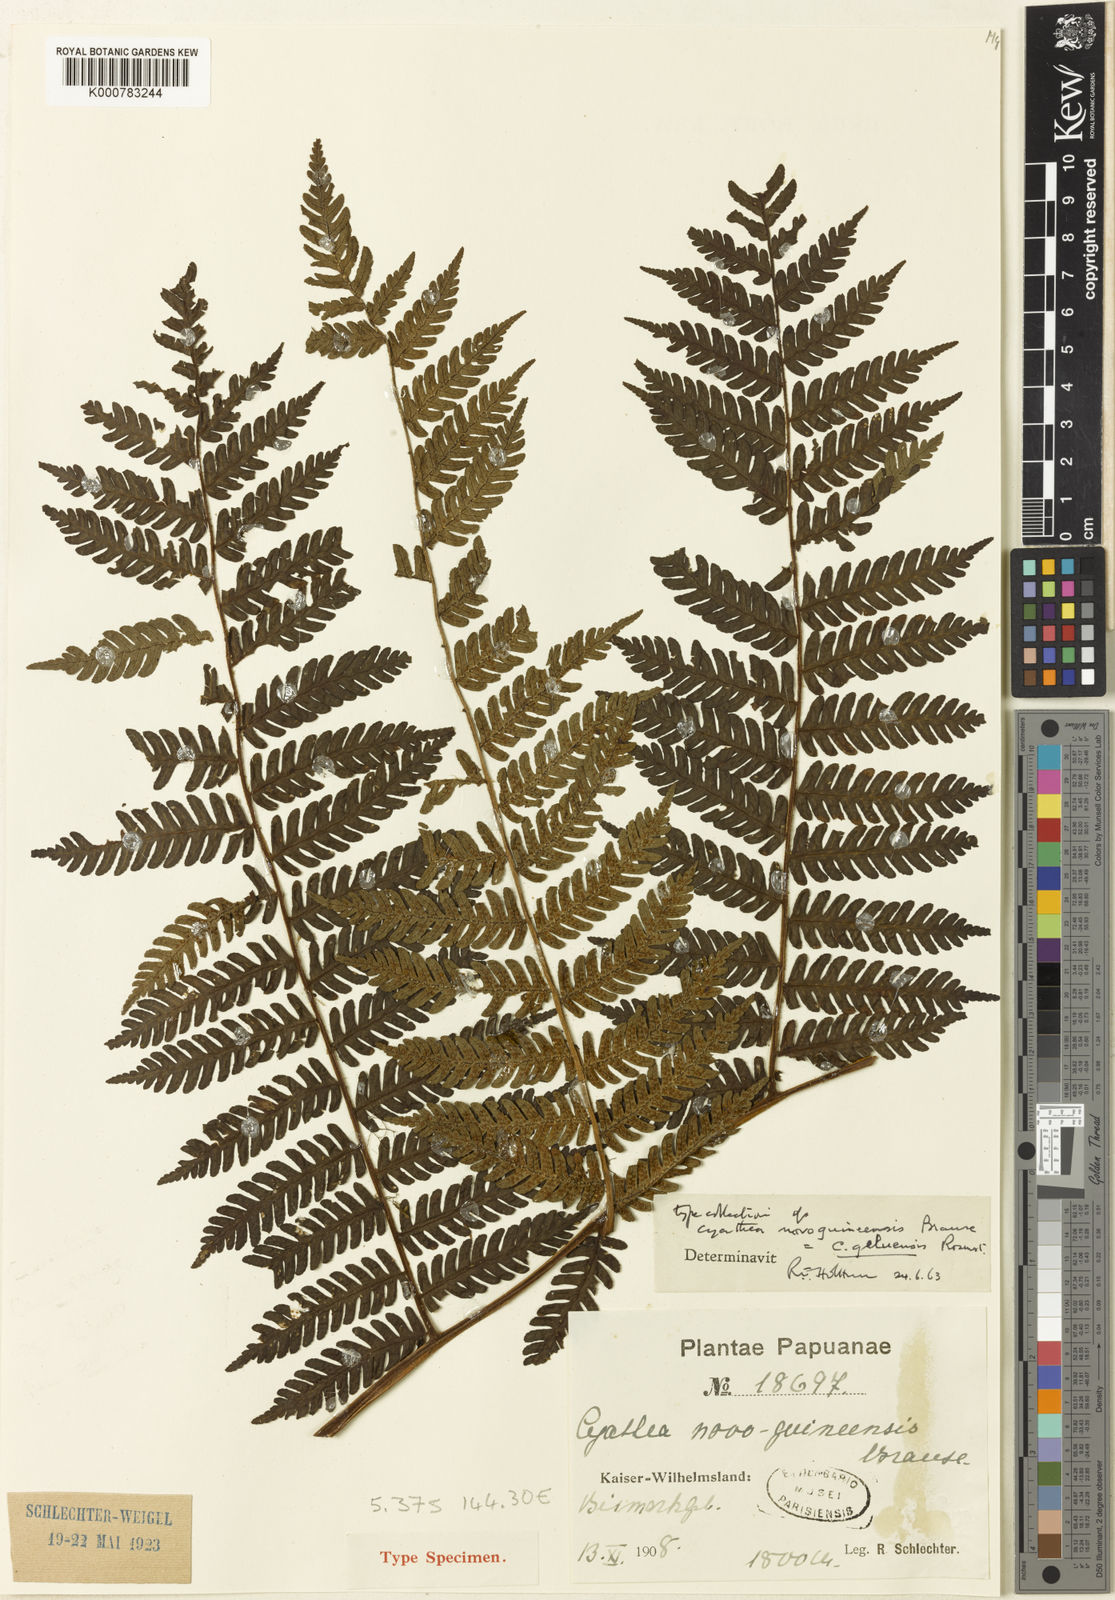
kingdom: Plantae
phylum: Tracheophyta
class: Polypodiopsida
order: Cyatheales
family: Cyatheaceae
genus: Alsophila
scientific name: Alsophila geluensis
